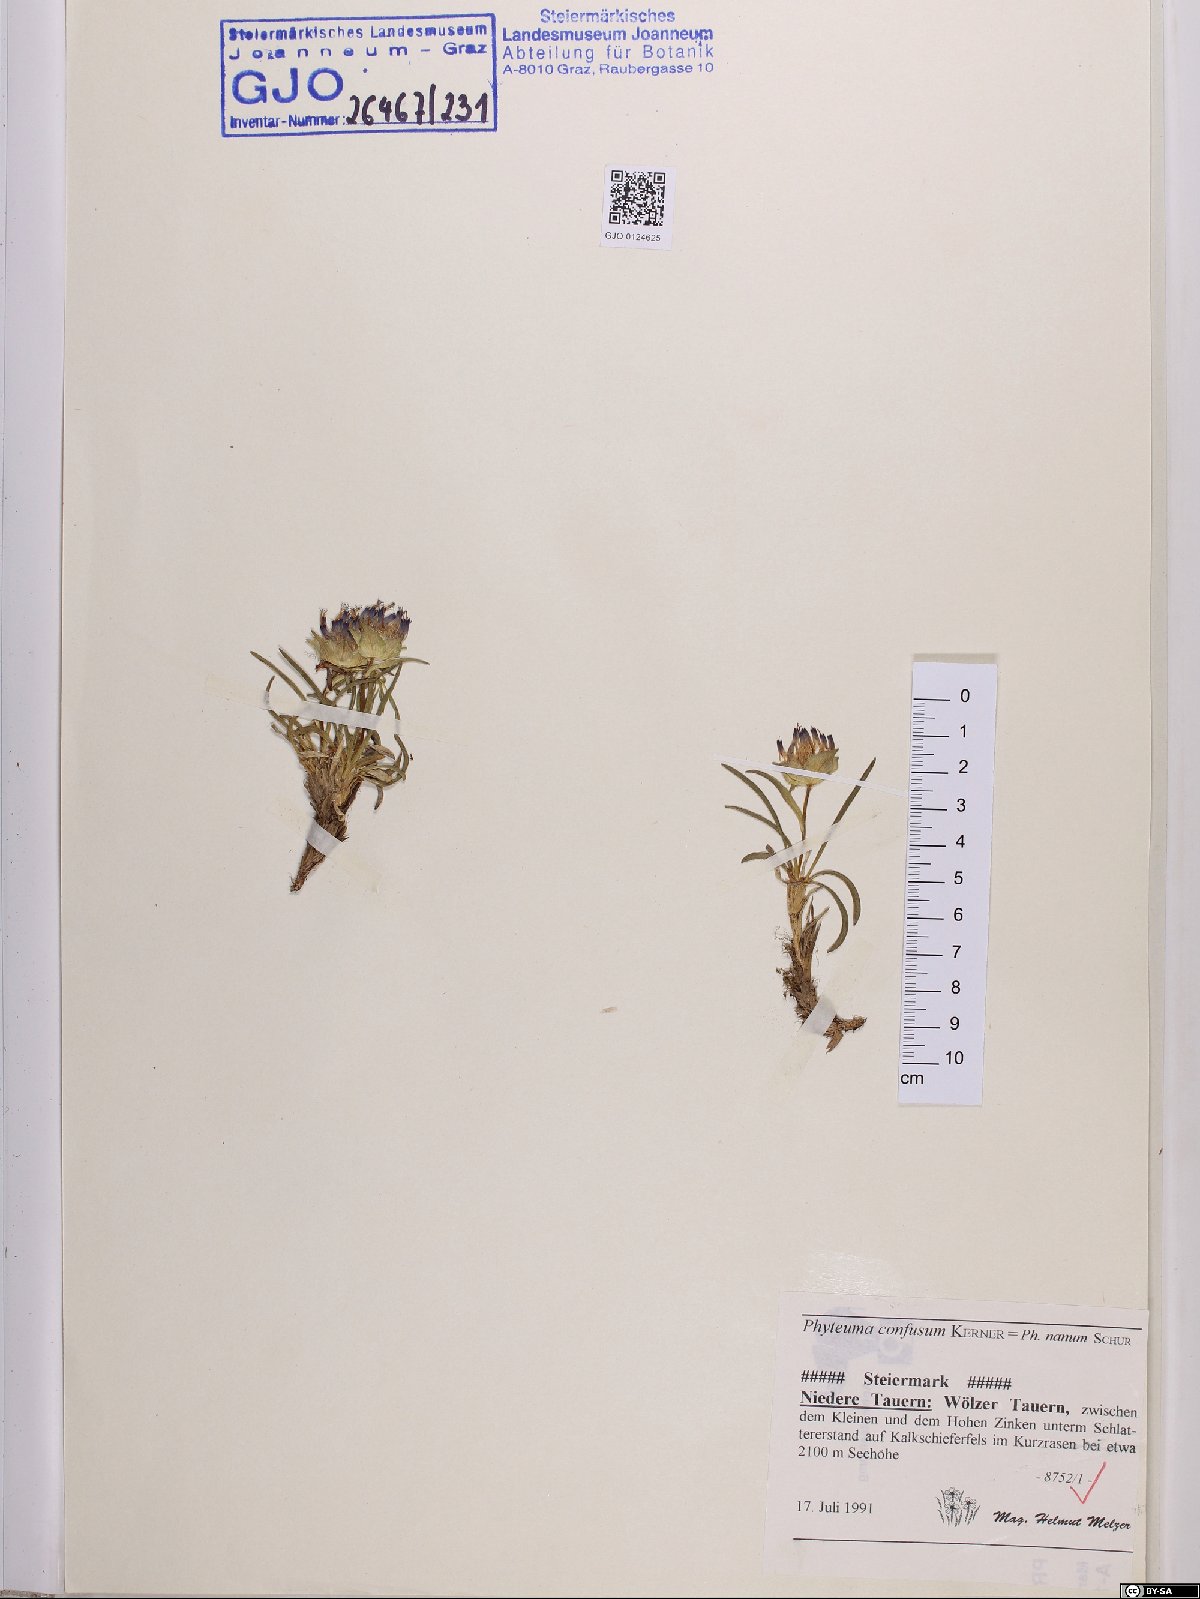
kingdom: Plantae
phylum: Tracheophyta
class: Magnoliopsida
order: Asterales
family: Campanulaceae
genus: Phyteuma
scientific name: Phyteuma confusum
